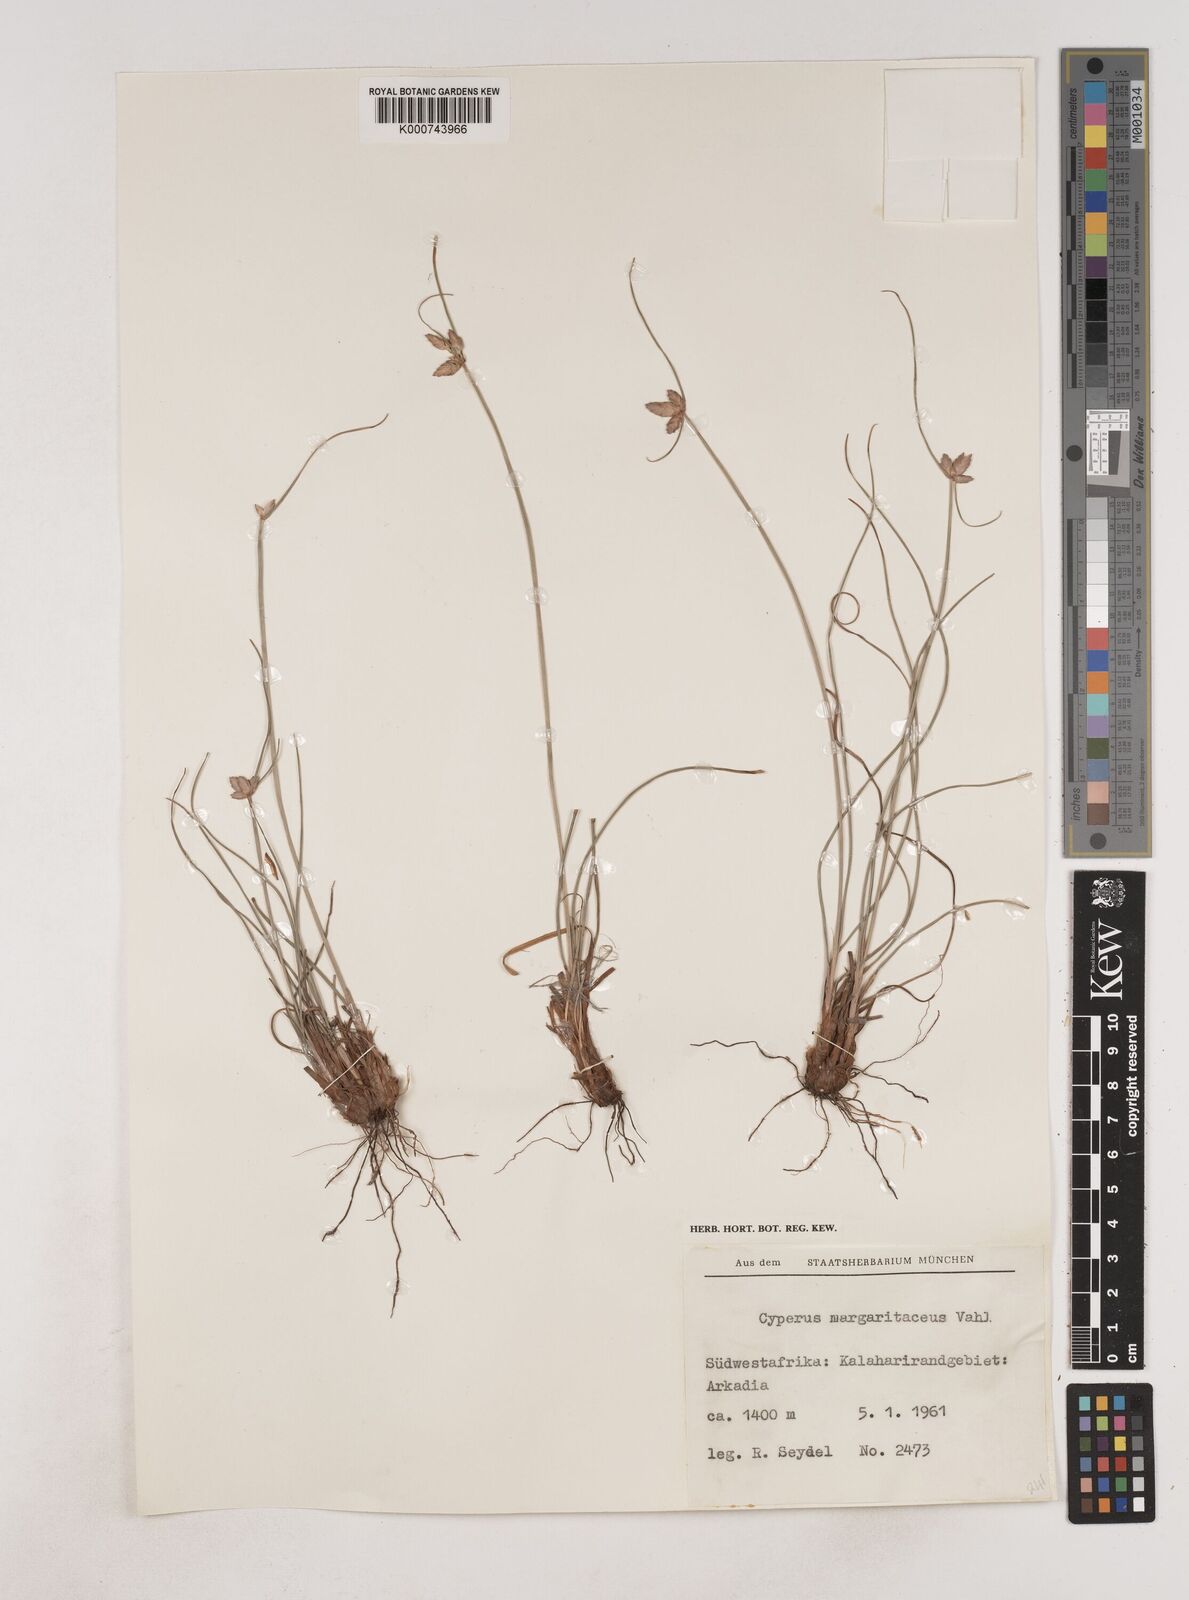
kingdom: Plantae
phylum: Tracheophyta
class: Liliopsida
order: Poales
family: Cyperaceae
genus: Cyperus
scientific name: Cyperus margaritaceus
